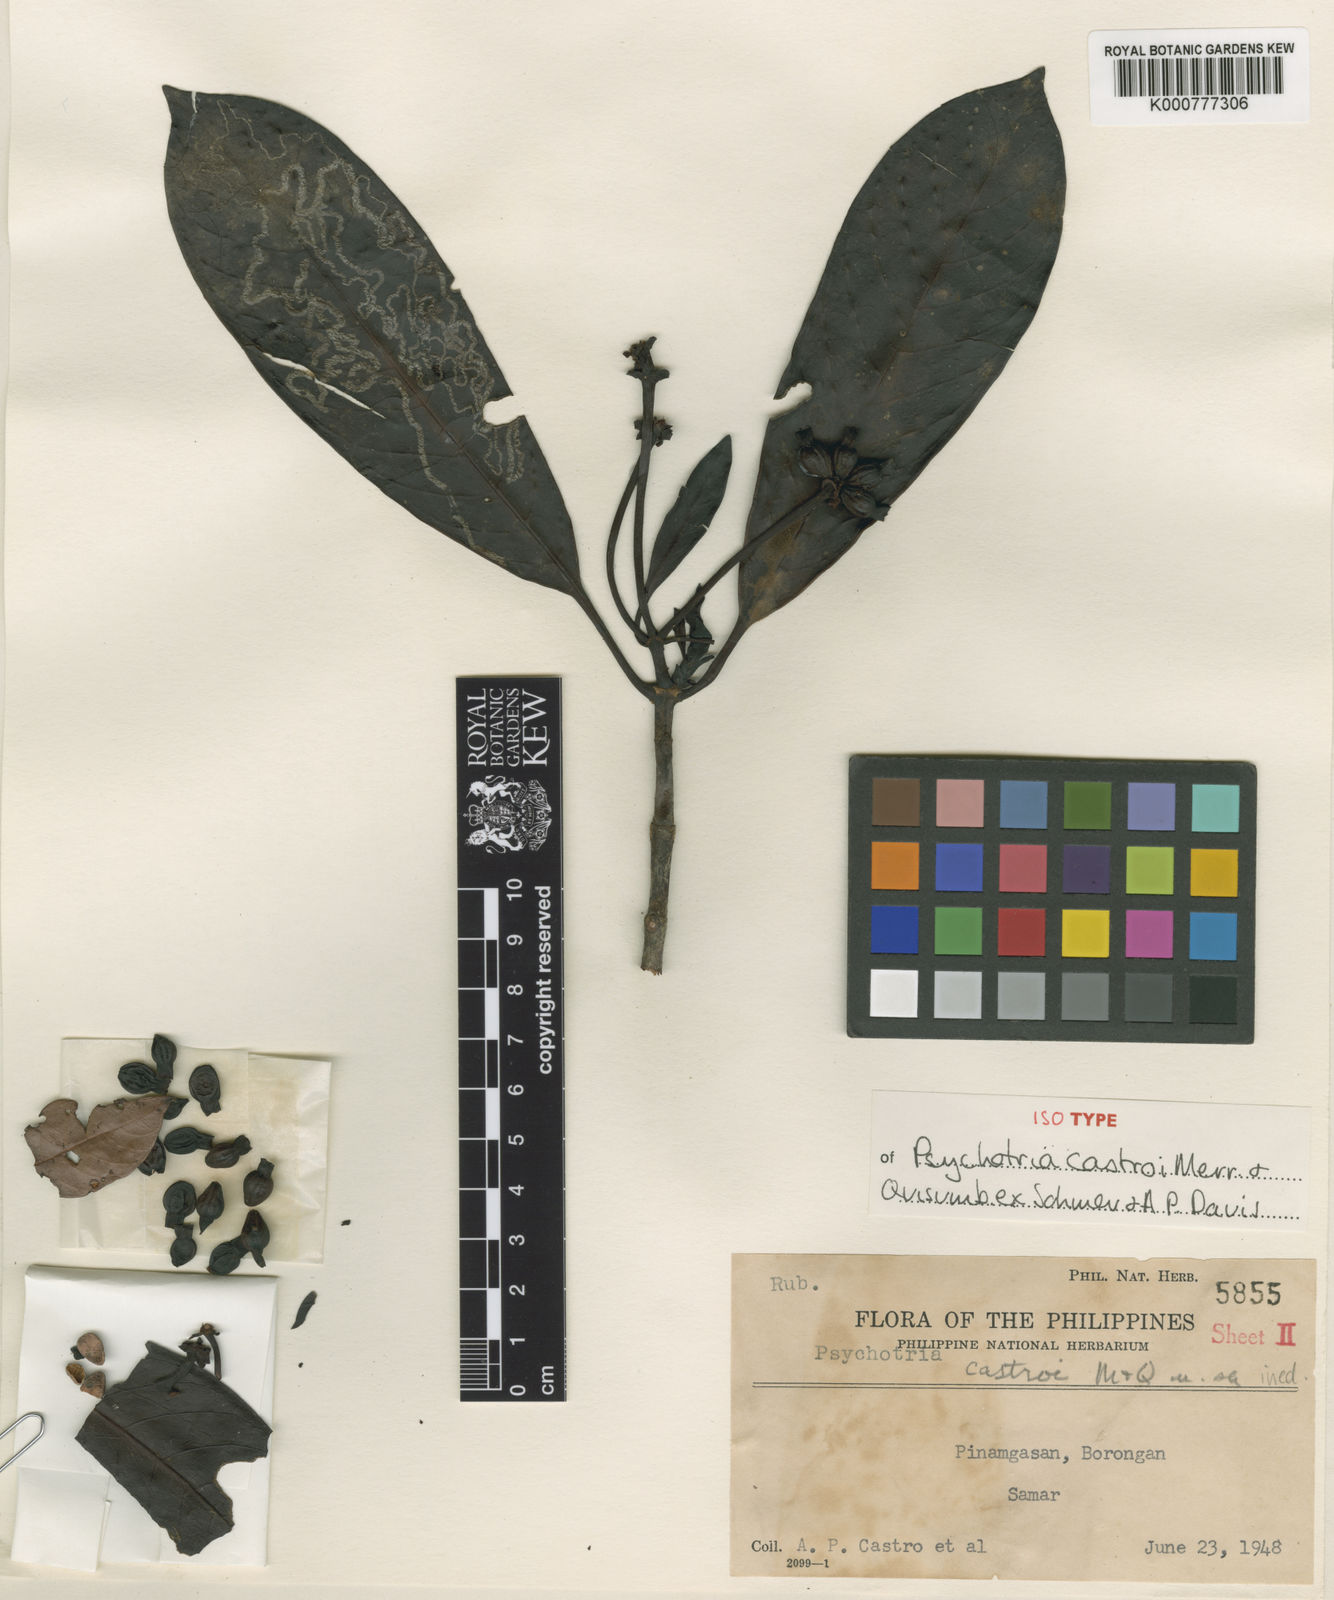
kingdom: Plantae
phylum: Tracheophyta
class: Magnoliopsida
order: Gentianales
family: Rubiaceae
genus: Psychotria
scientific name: Psychotria castroi
